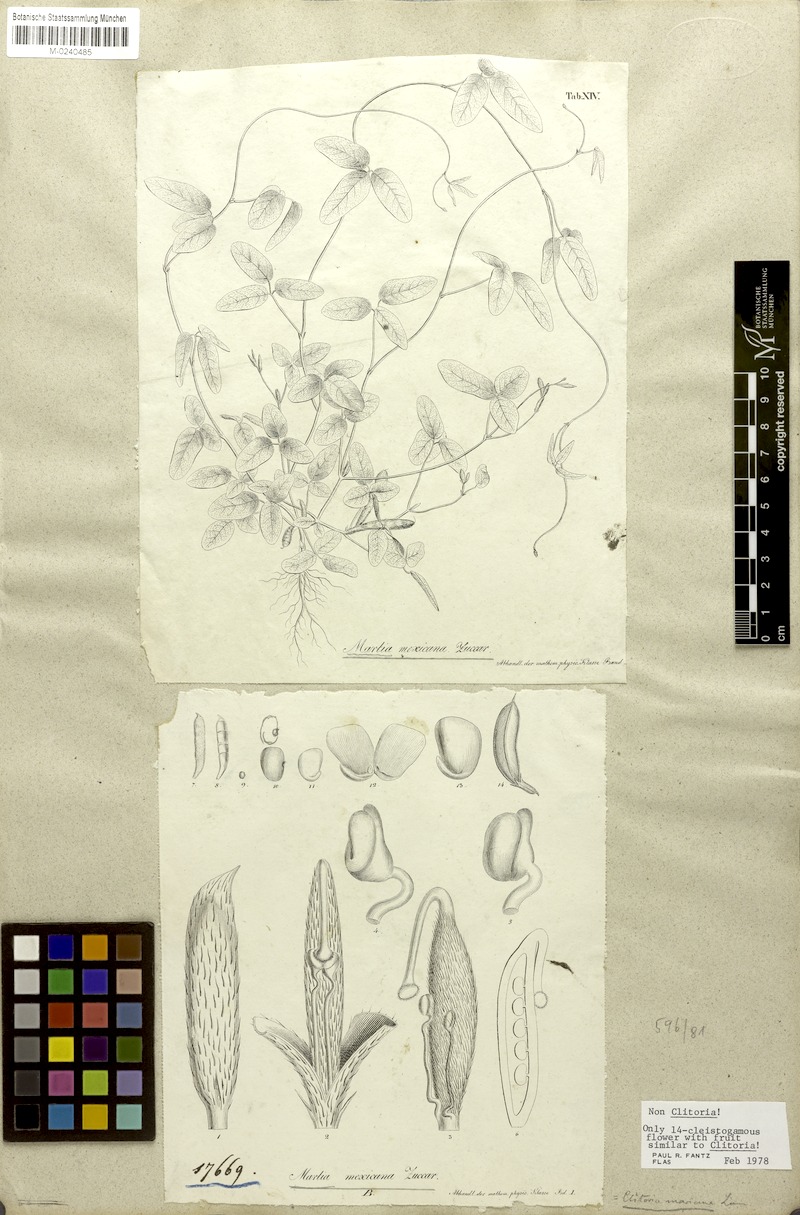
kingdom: Plantae
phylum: Tracheophyta
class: Magnoliopsida
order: Fabales
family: Fabaceae
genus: Cologania
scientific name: Cologania angustifolia
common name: Longleaf cologania
